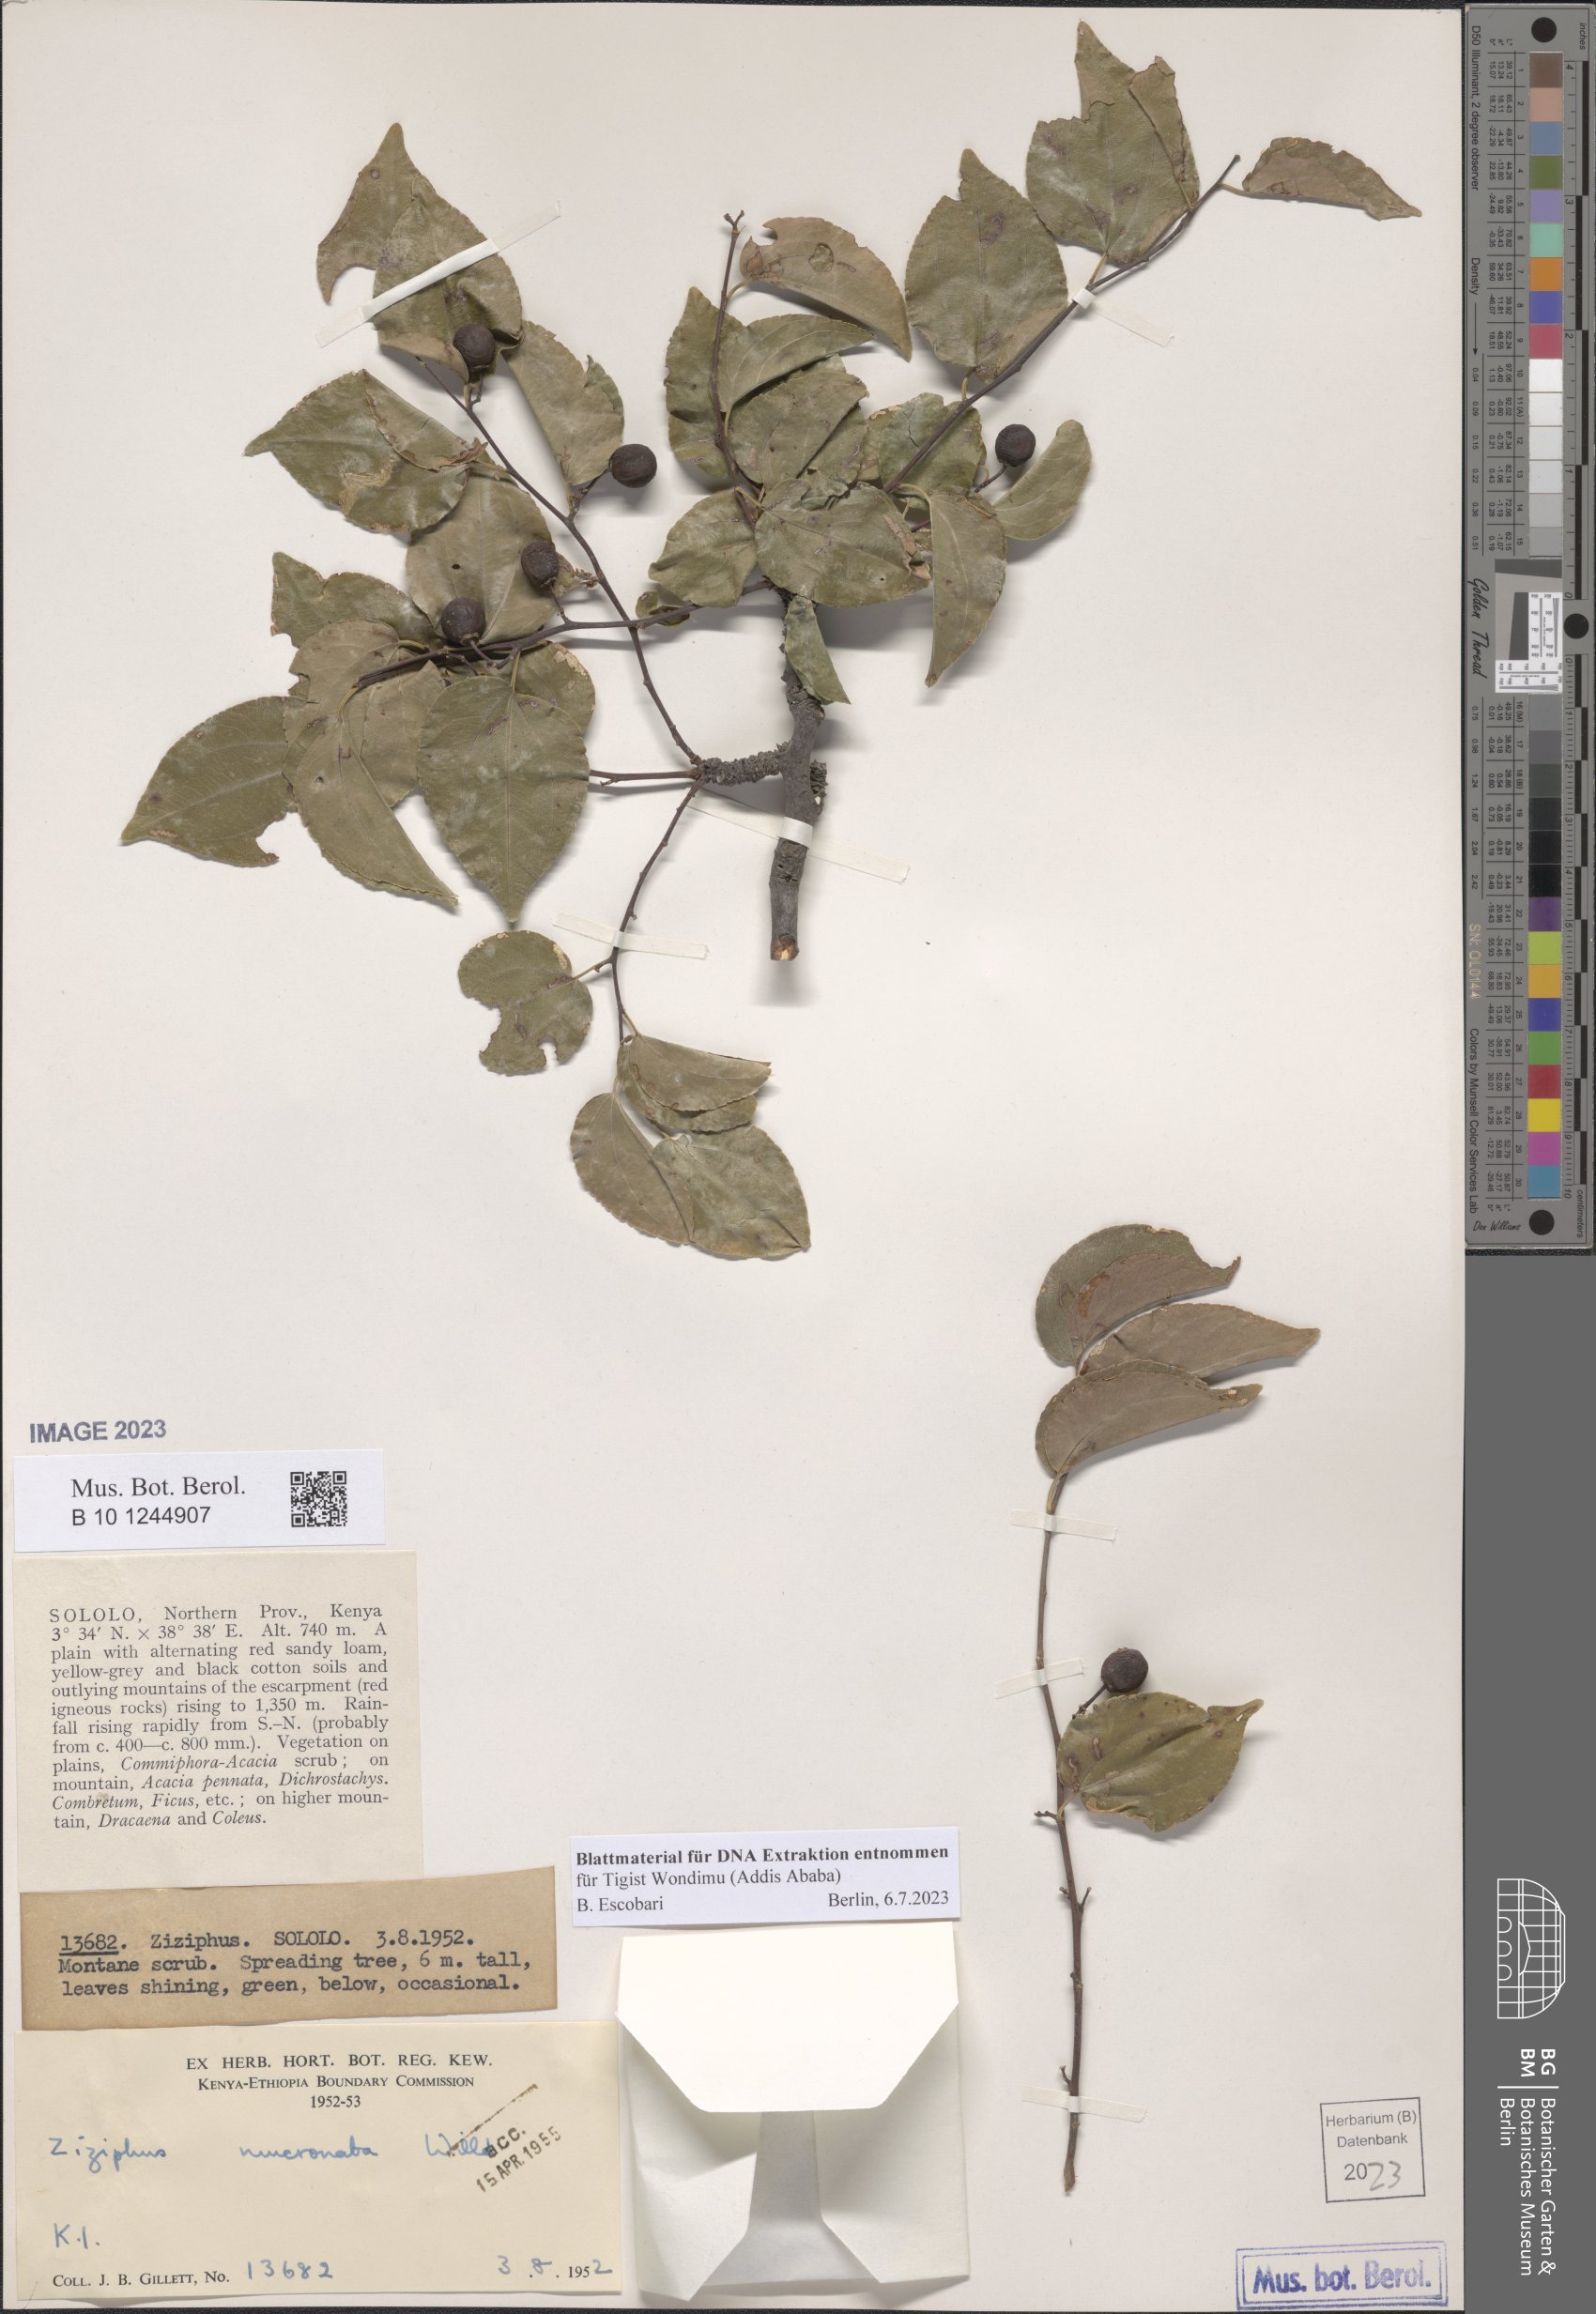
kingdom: Plantae
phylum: Tracheophyta
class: Magnoliopsida
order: Rosales
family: Rhamnaceae
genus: Ziziphus
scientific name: Ziziphus mucronata
